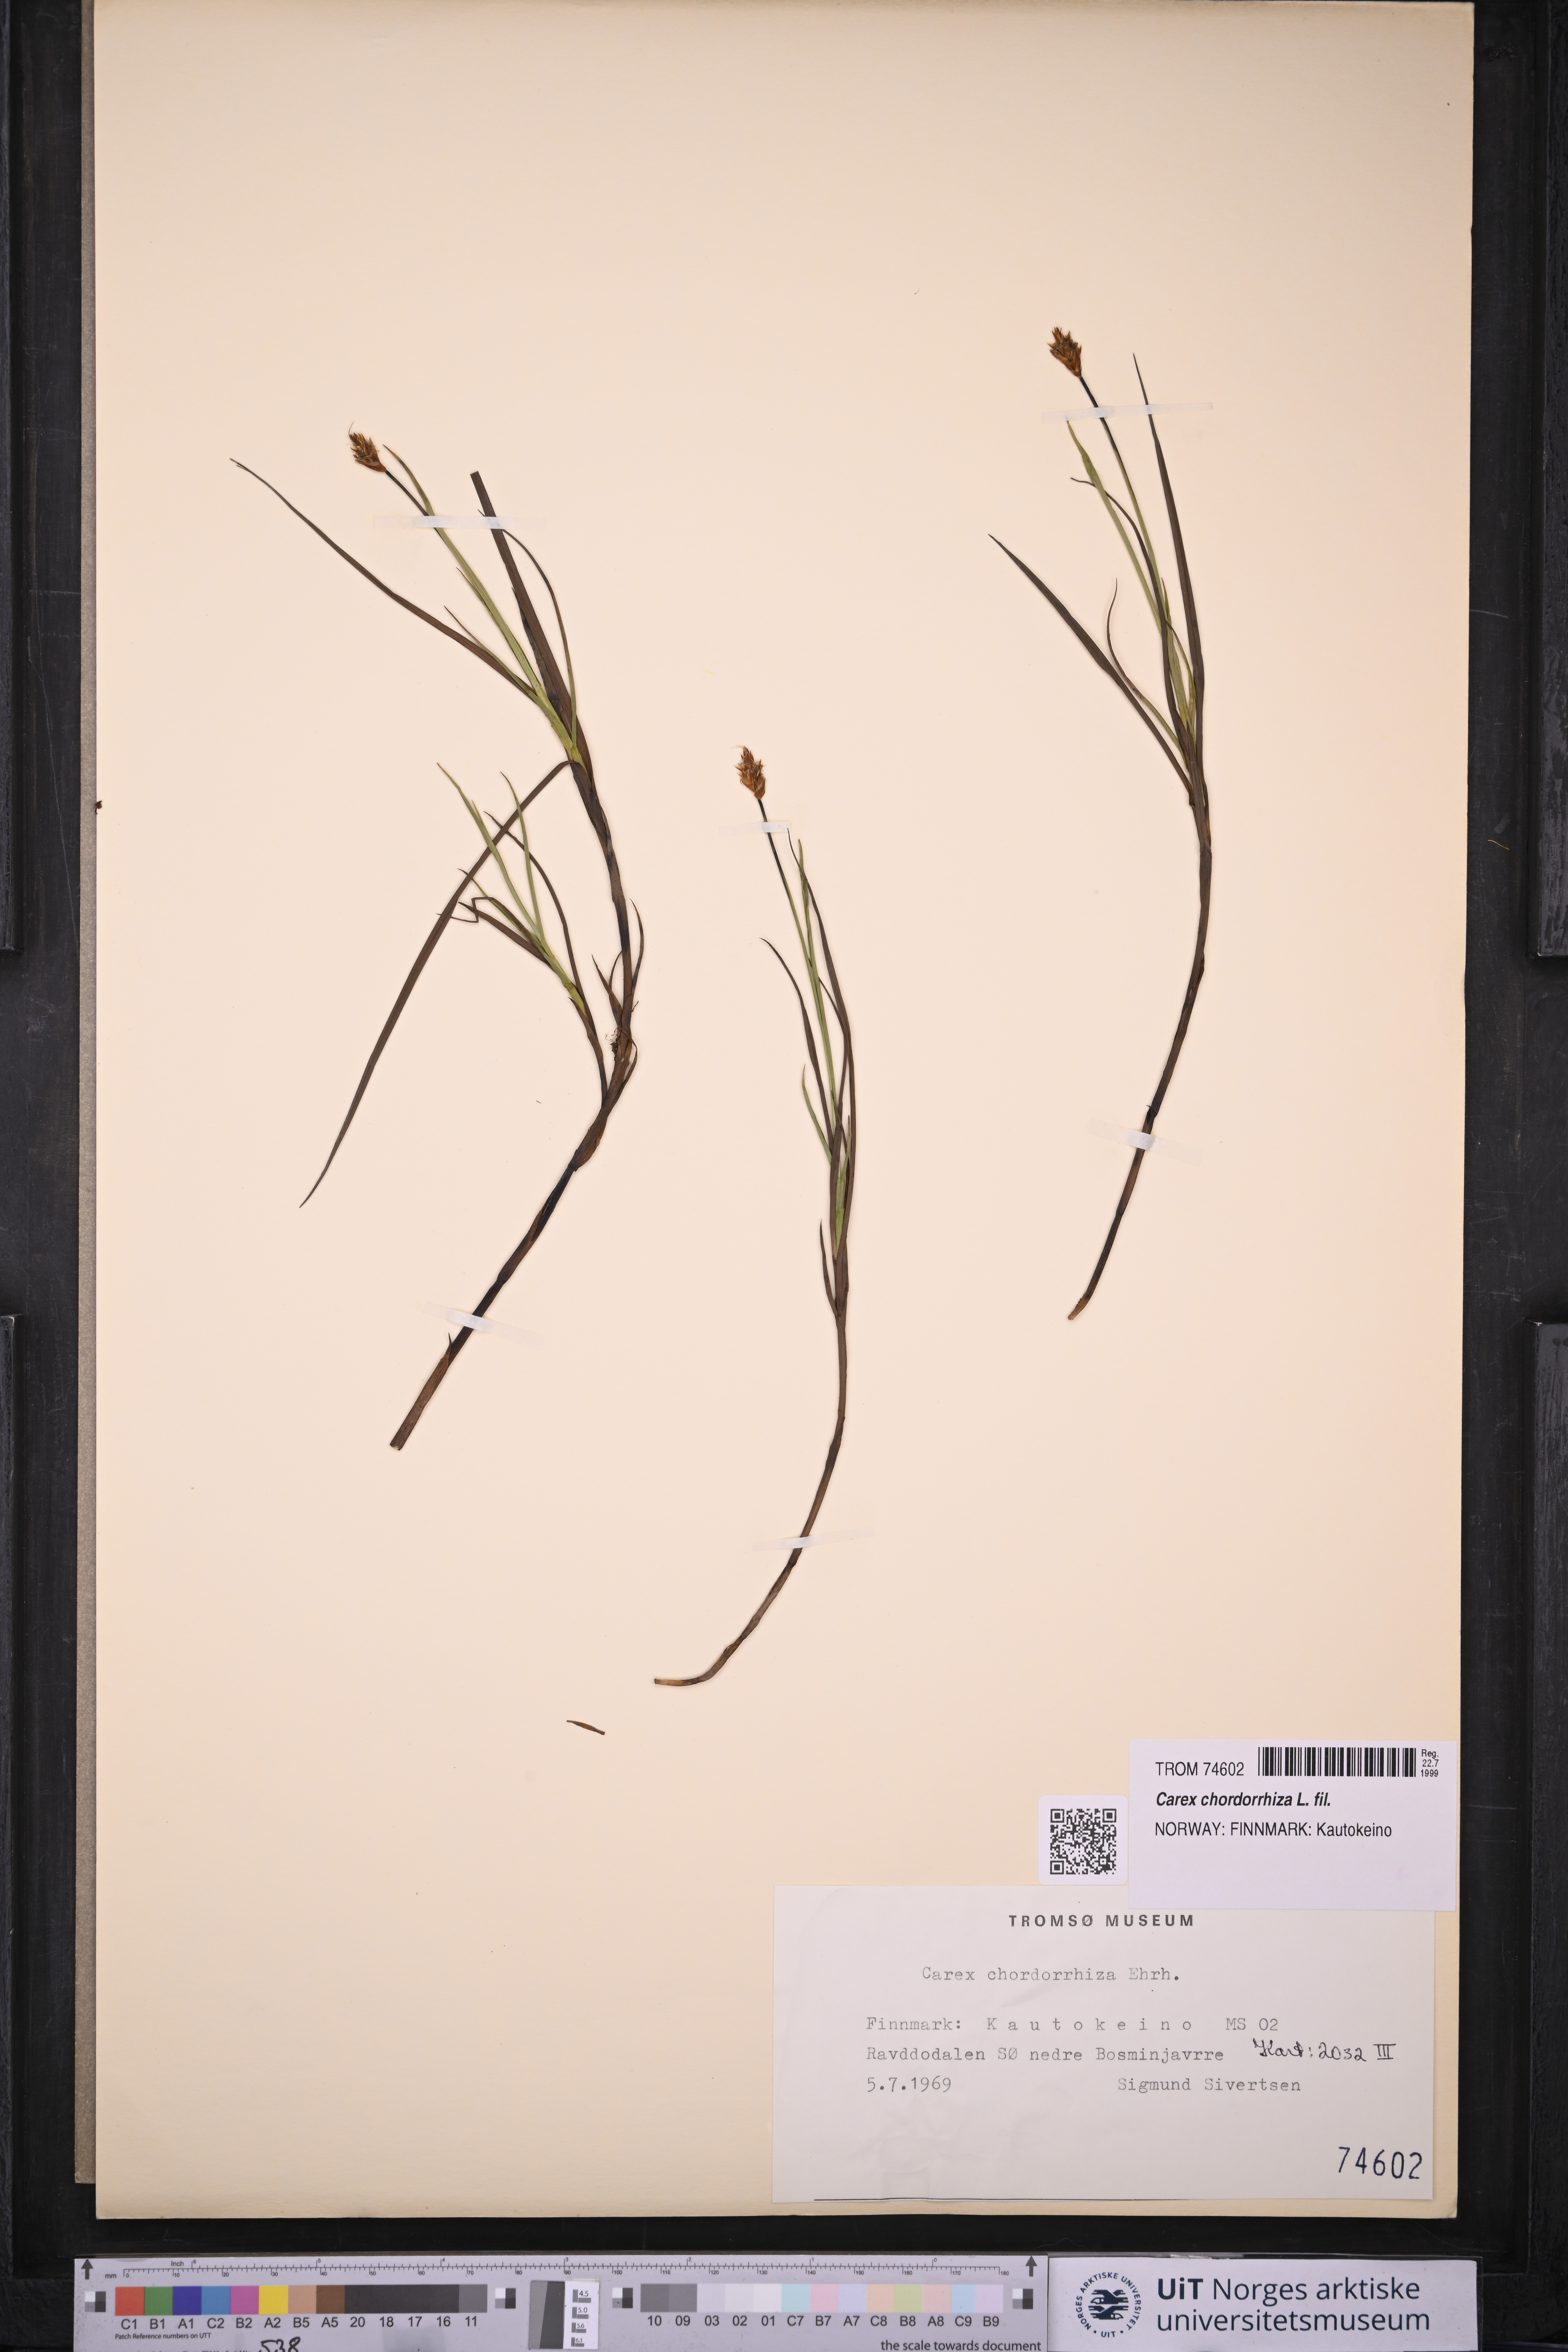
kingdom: Plantae
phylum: Tracheophyta
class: Liliopsida
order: Poales
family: Cyperaceae
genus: Carex
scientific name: Carex chordorrhiza
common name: String sedge
